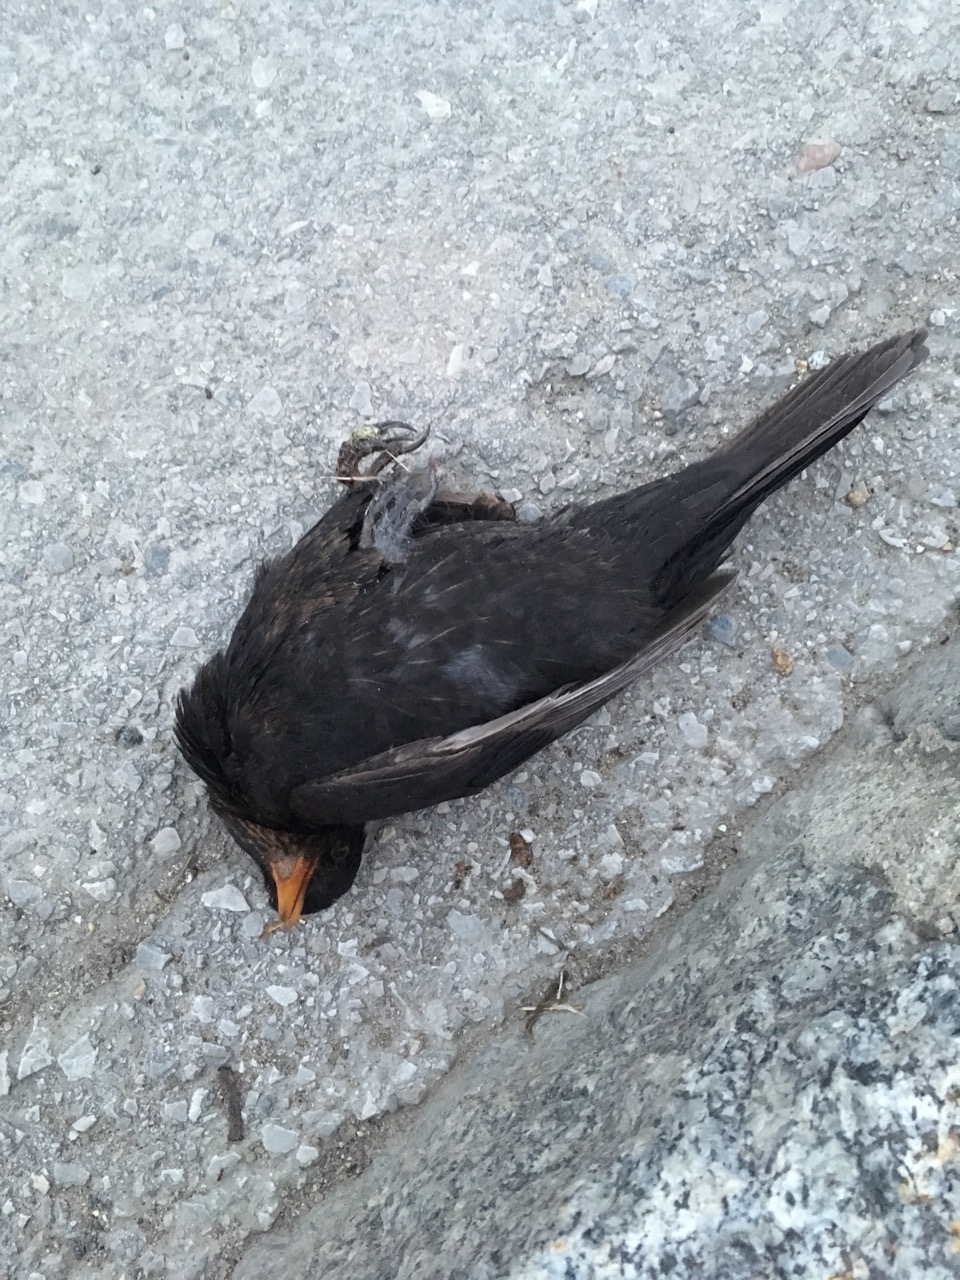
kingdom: Animalia
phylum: Chordata
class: Aves
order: Passeriformes
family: Turdidae
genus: Turdus
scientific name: Turdus merula
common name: Common blackbird
